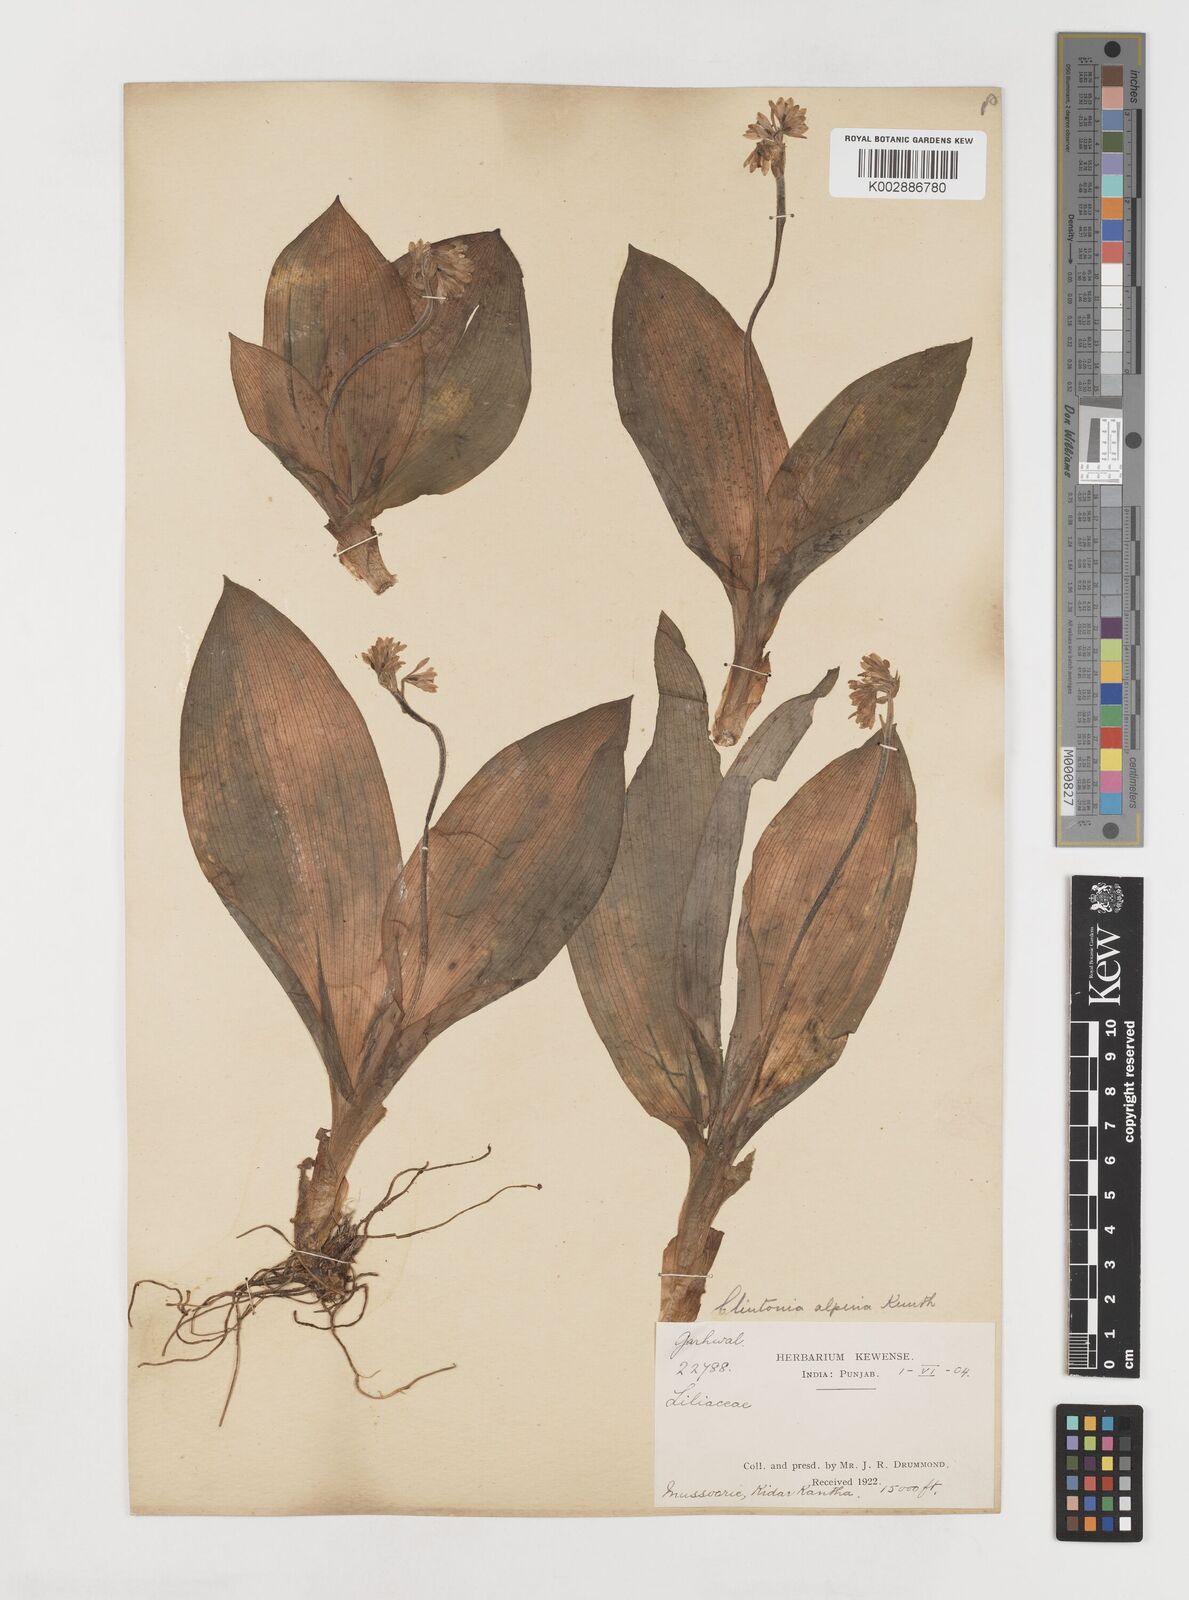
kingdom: Plantae
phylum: Tracheophyta
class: Liliopsida
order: Liliales
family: Liliaceae
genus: Clintonia
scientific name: Clintonia udensis
